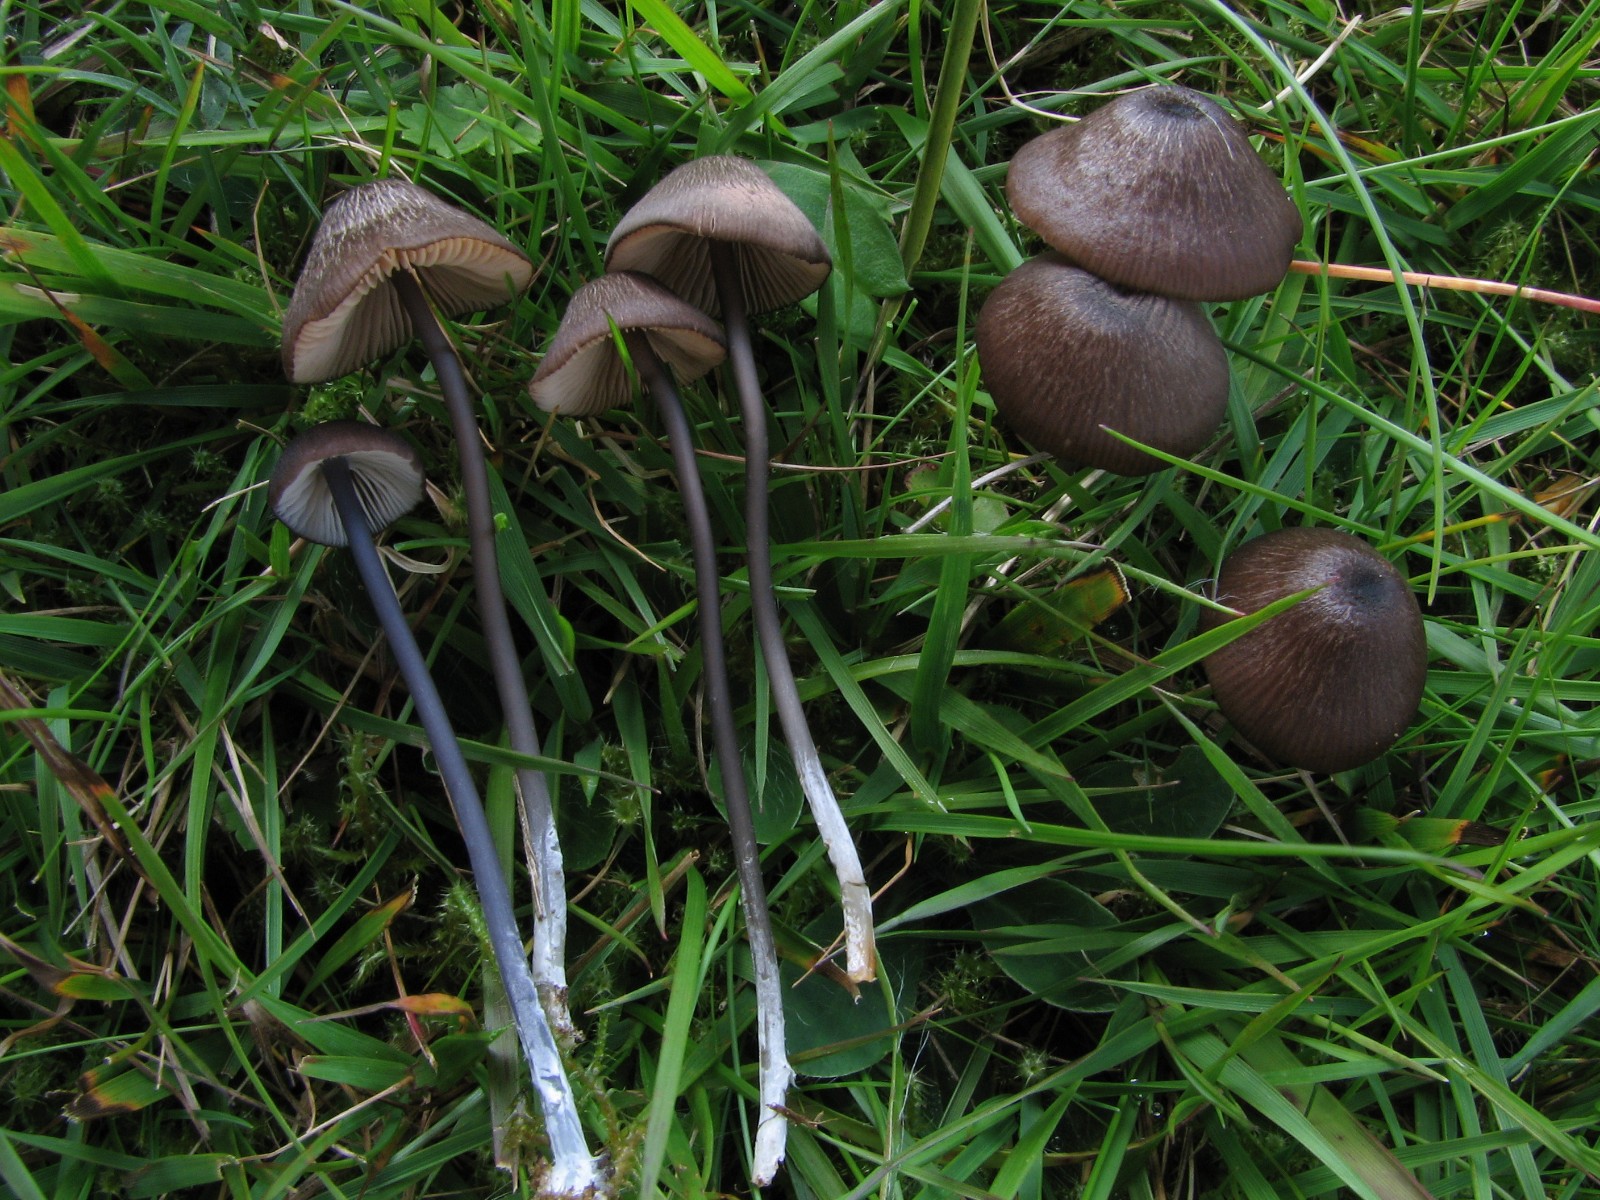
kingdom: Fungi
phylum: Basidiomycota
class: Agaricomycetes
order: Agaricales
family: Entolomataceae
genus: Entoloma
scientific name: Entoloma insidiosum
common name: ru rødblad
